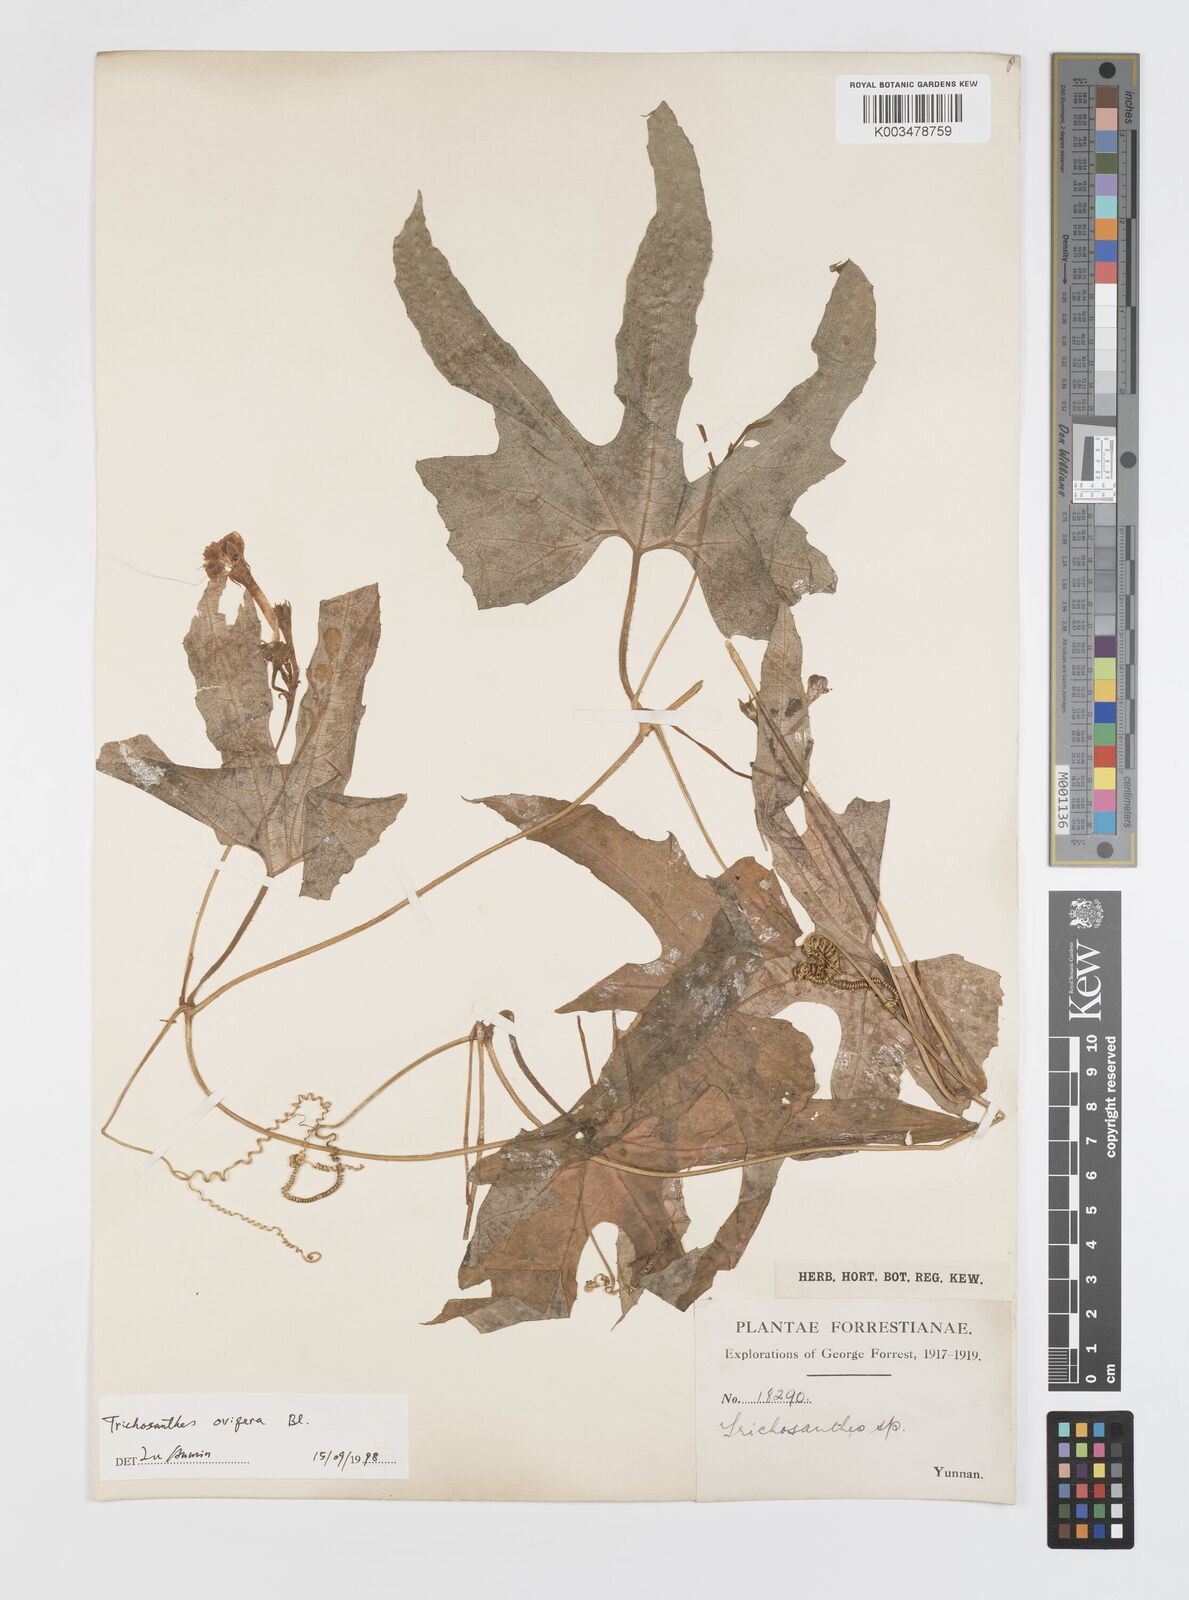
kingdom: Plantae
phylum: Tracheophyta
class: Magnoliopsida
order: Cucurbitales
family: Cucurbitaceae
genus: Trichosanthes
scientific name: Trichosanthes ovigera
